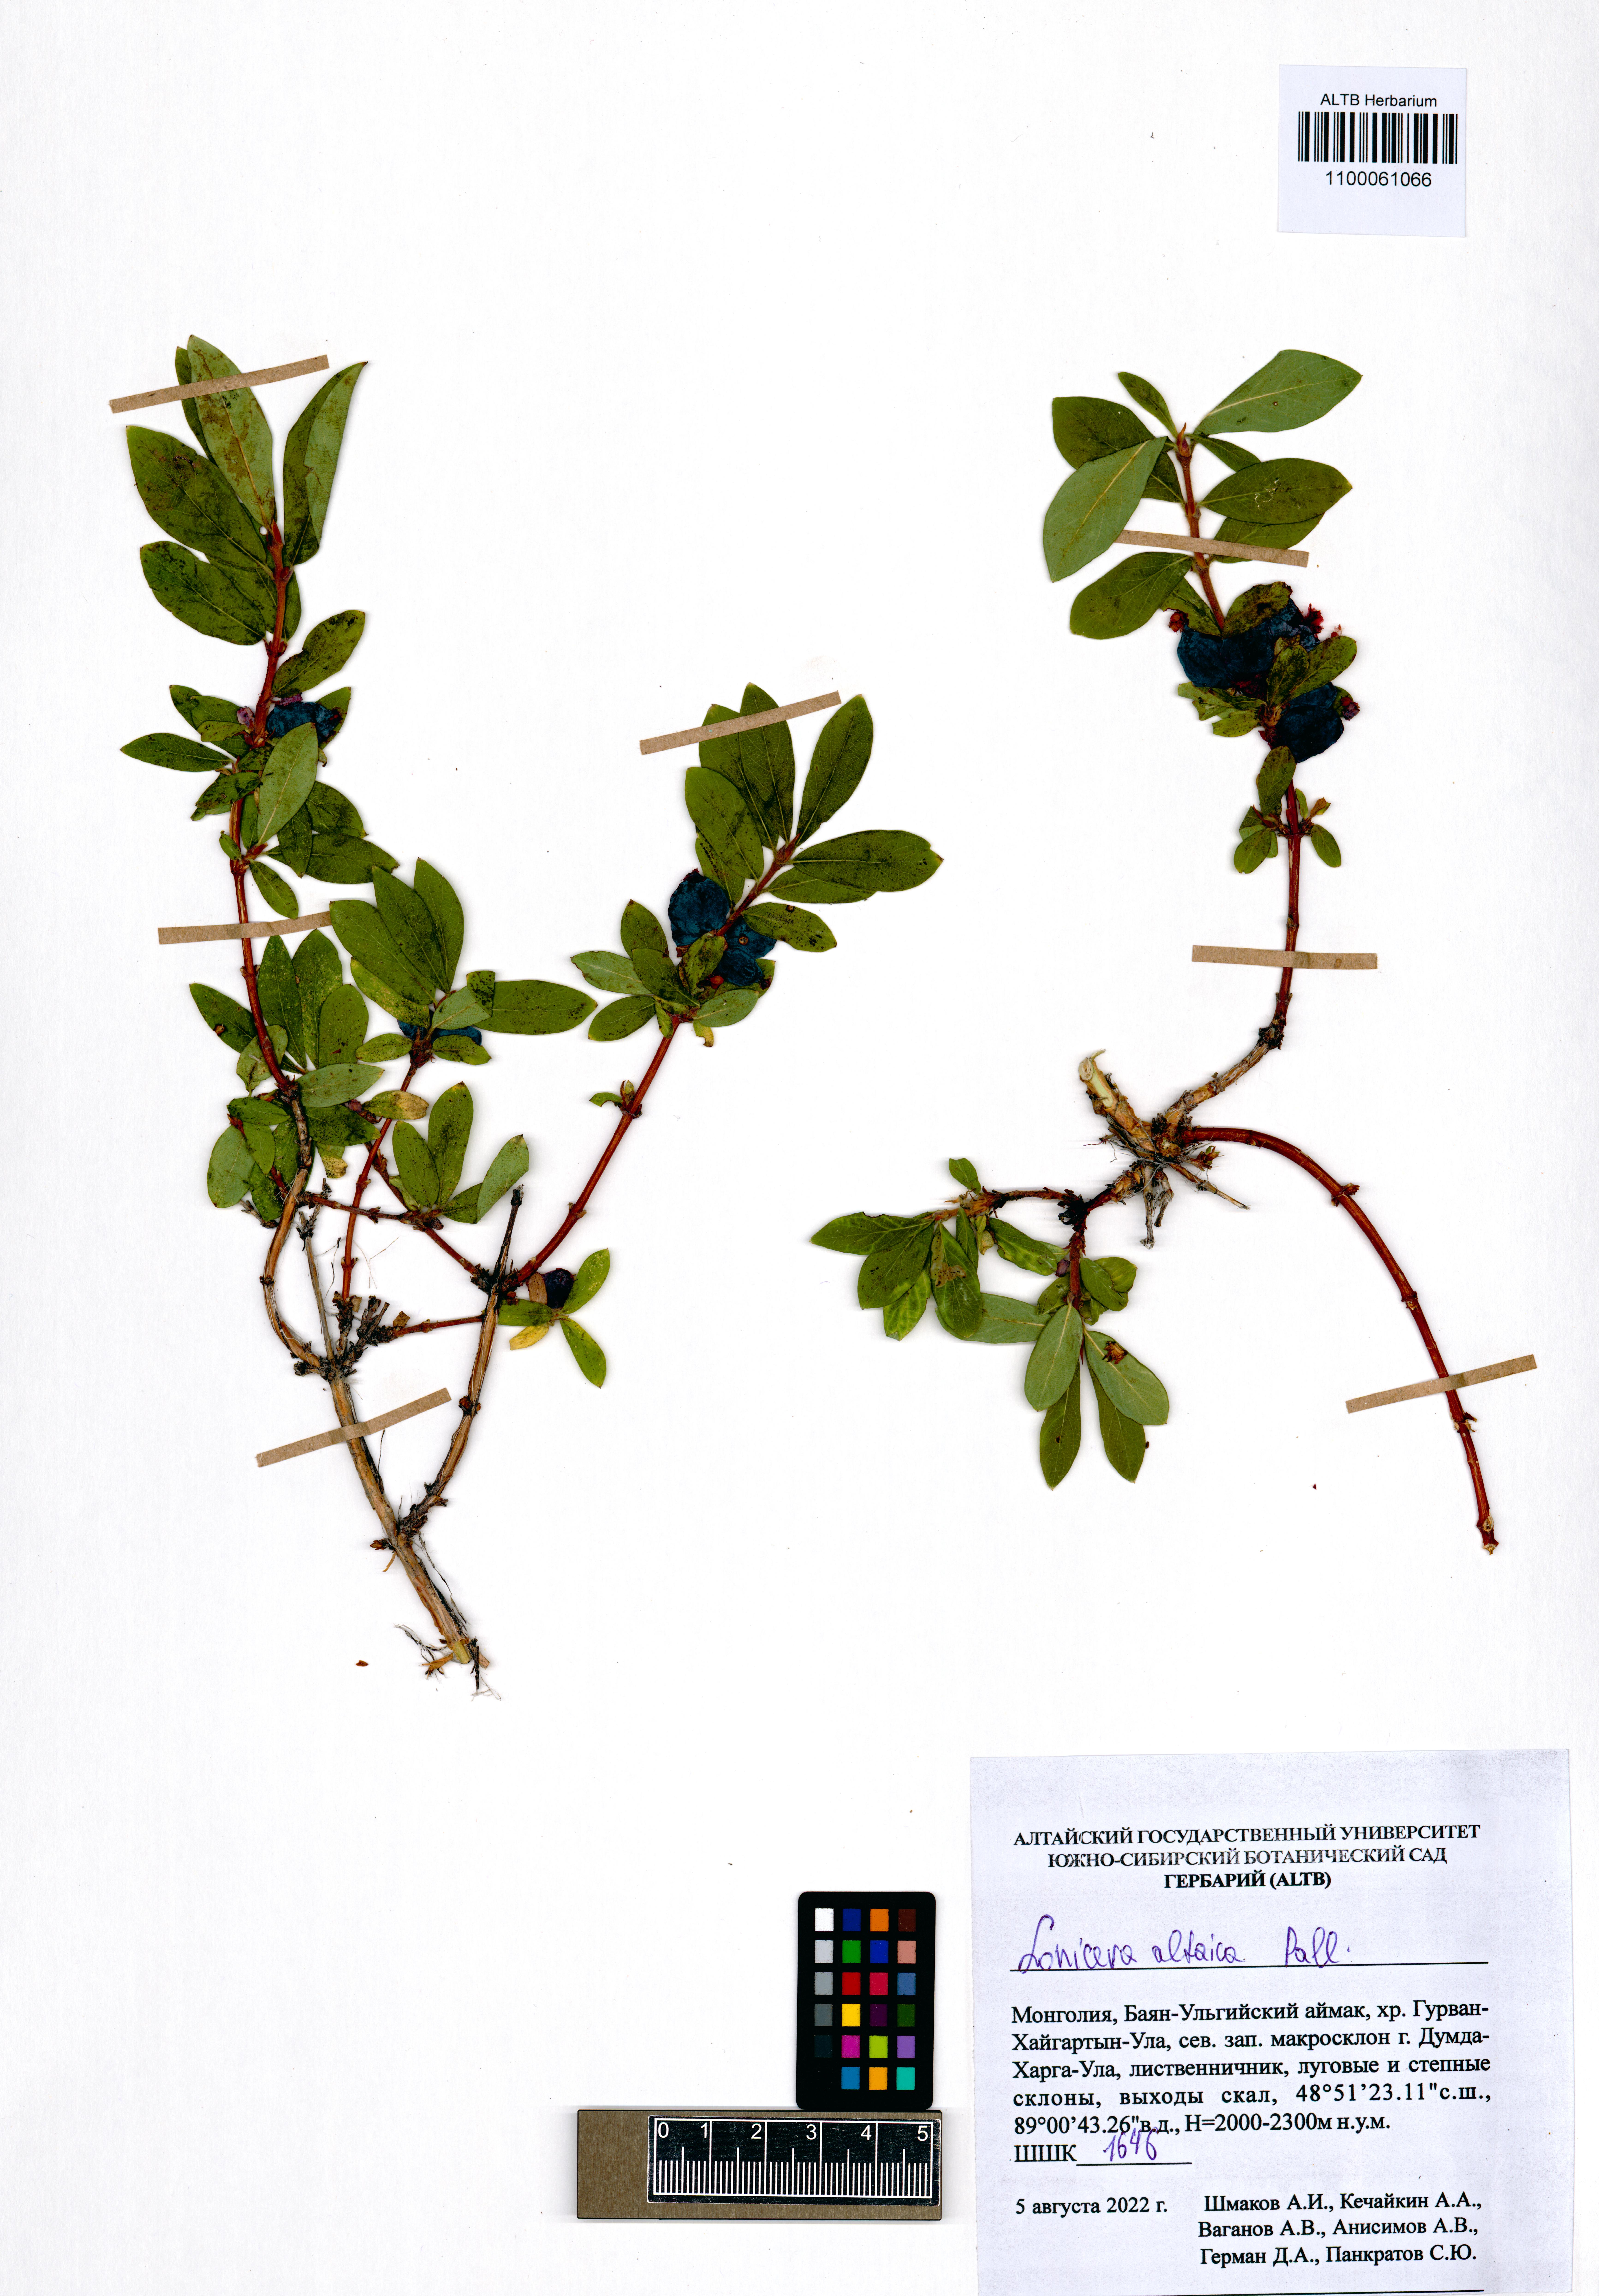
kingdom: Plantae
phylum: Tracheophyta
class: Magnoliopsida
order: Dipsacales
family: Caprifoliaceae
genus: Lonicera
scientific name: Lonicera caerulea
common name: Blue honeysuckle
